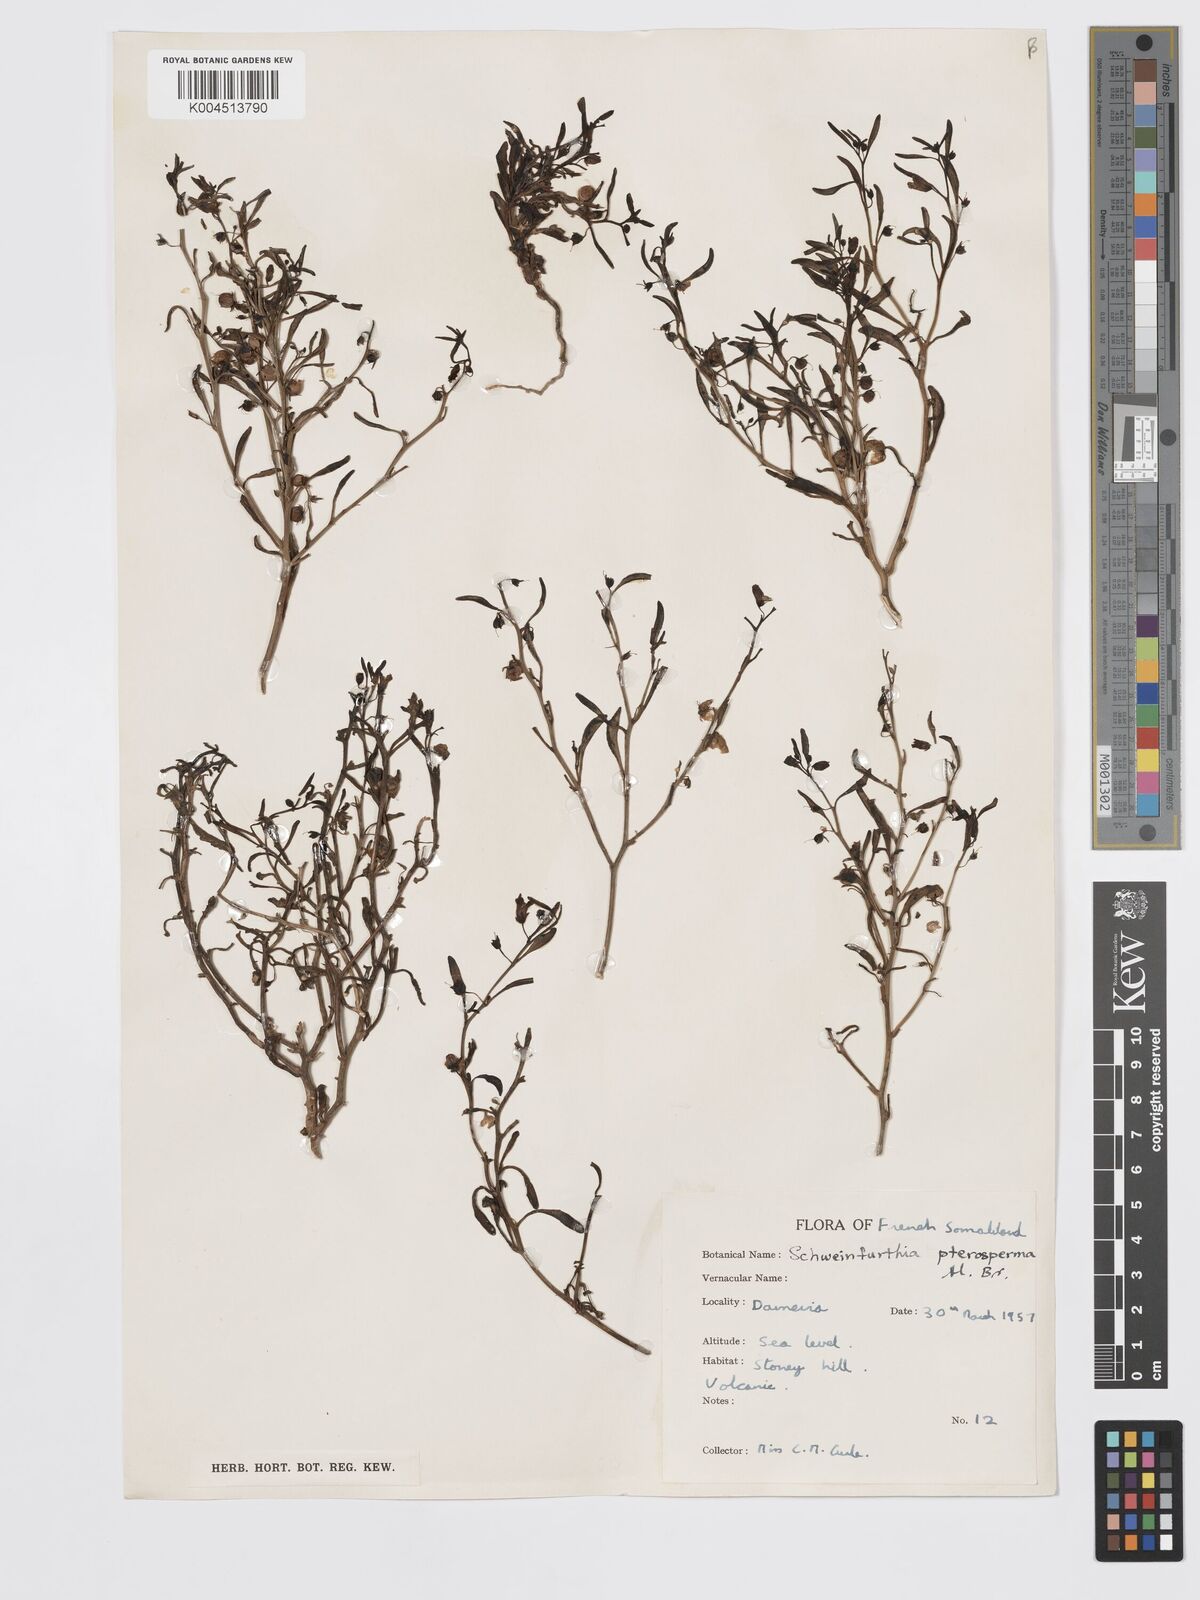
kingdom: Plantae
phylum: Tracheophyta
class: Magnoliopsida
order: Lamiales
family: Plantaginaceae
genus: Schweinfurthia
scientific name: Schweinfurthia pterosperma
